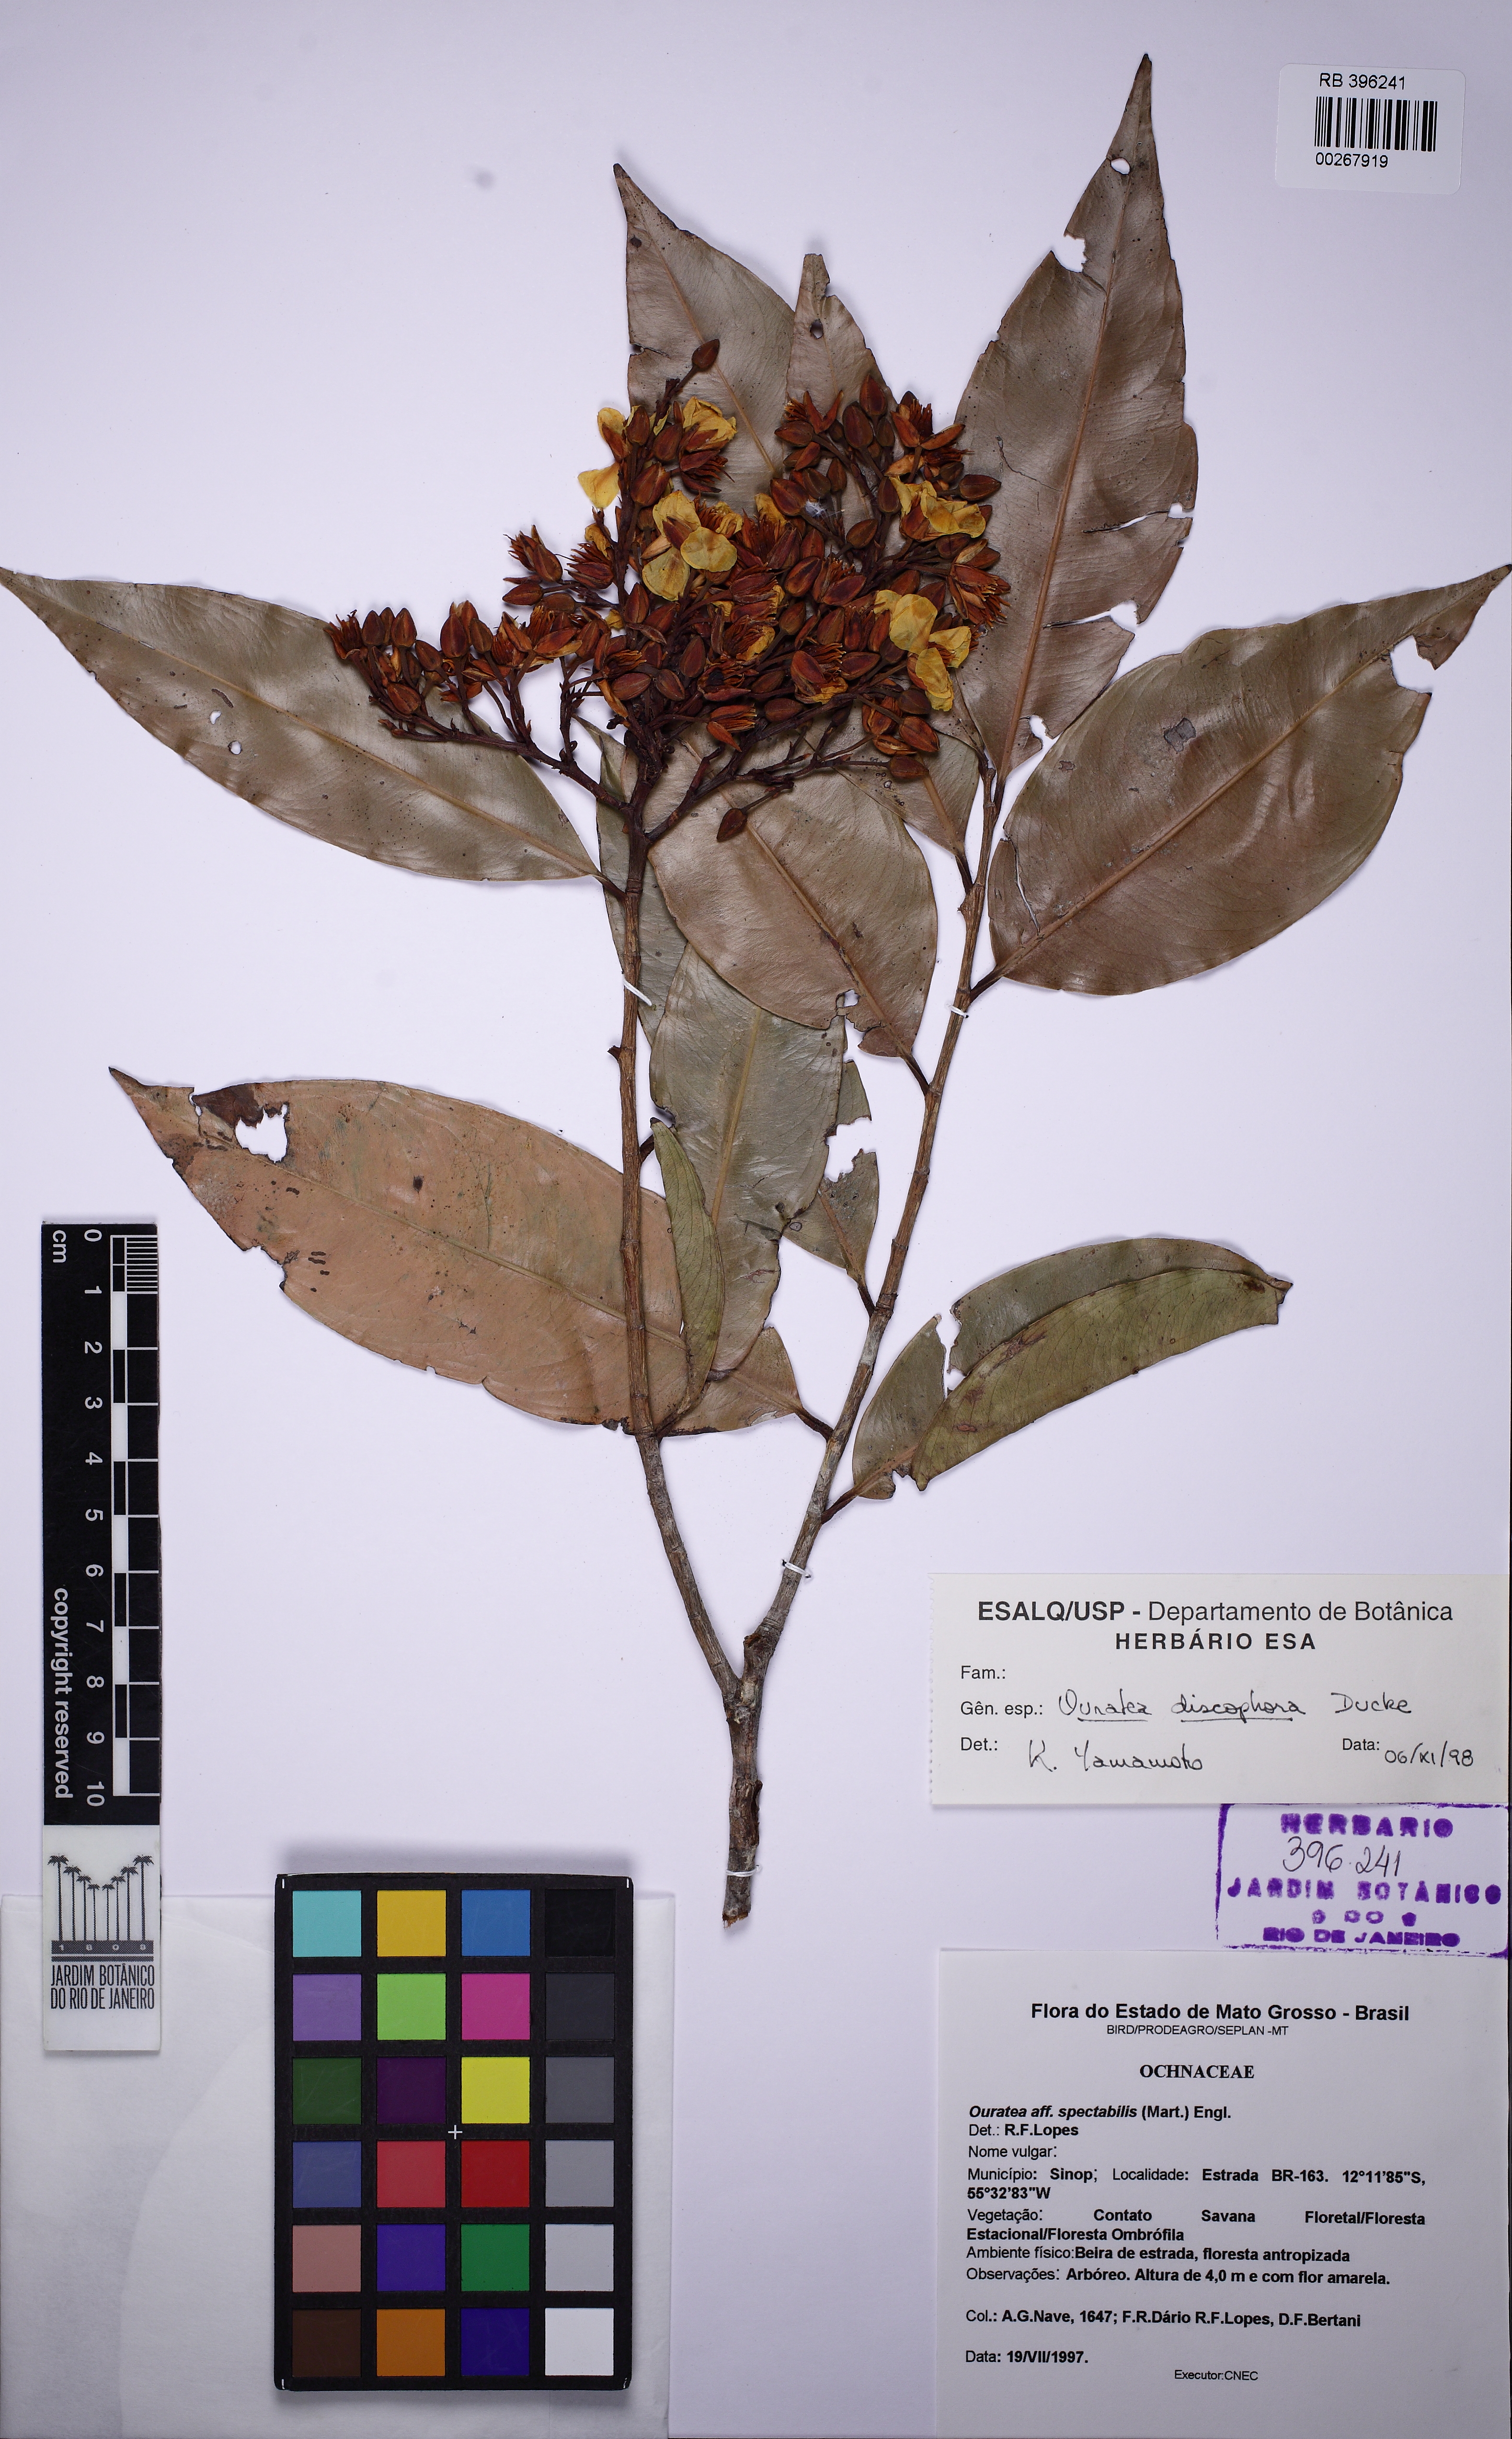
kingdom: Plantae
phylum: Tracheophyta
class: Magnoliopsida
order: Malpighiales
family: Ochnaceae
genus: Ouratea
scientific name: Ouratea discophora
